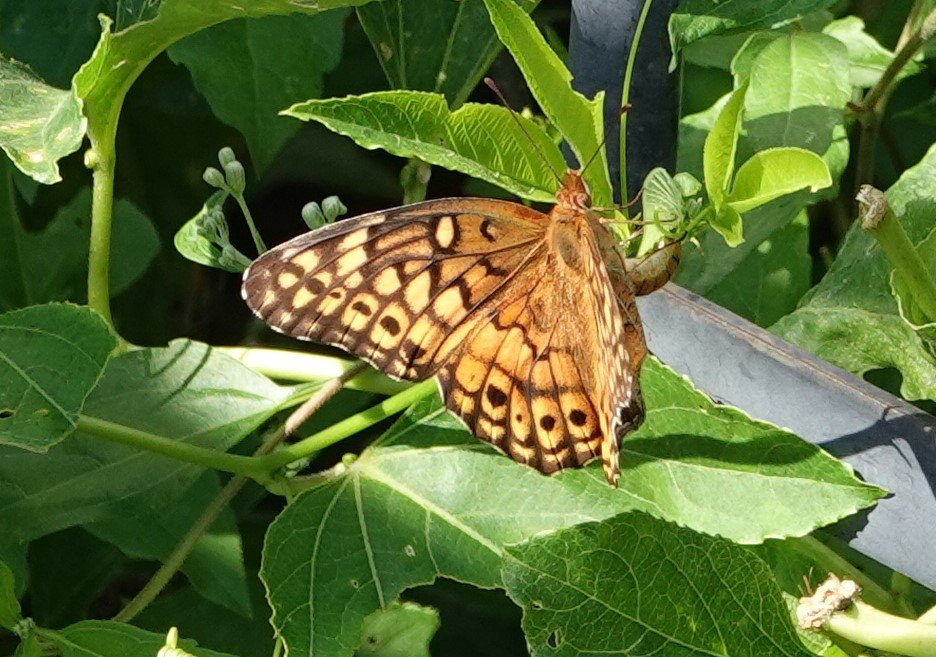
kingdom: Animalia
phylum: Arthropoda
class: Insecta
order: Lepidoptera
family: Nymphalidae
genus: Euptoieta
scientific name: Euptoieta claudia
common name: Variegated Fritillary
